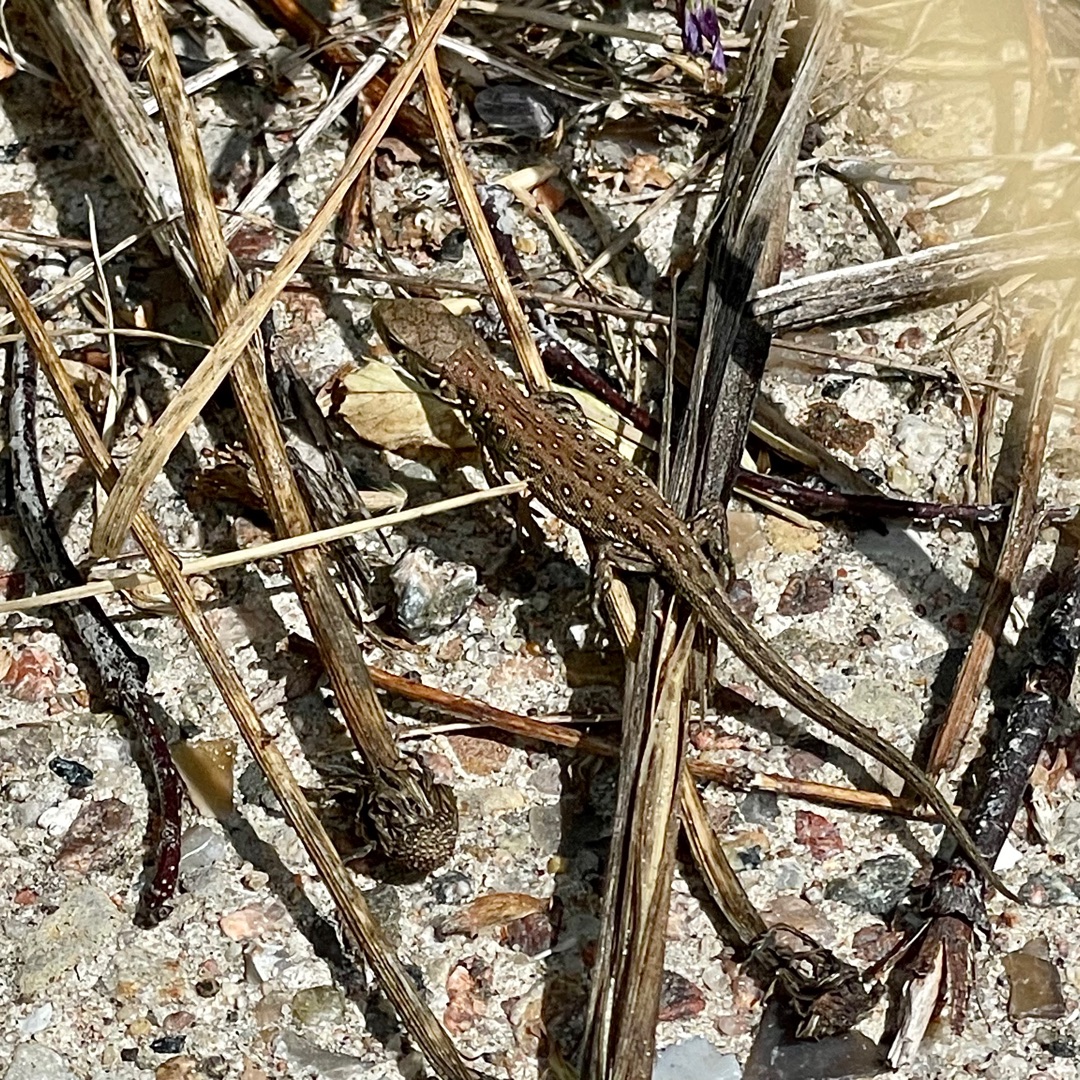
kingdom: Animalia
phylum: Chordata
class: Squamata
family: Lacertidae
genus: Lacerta
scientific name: Lacerta agilis
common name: Markfirben
